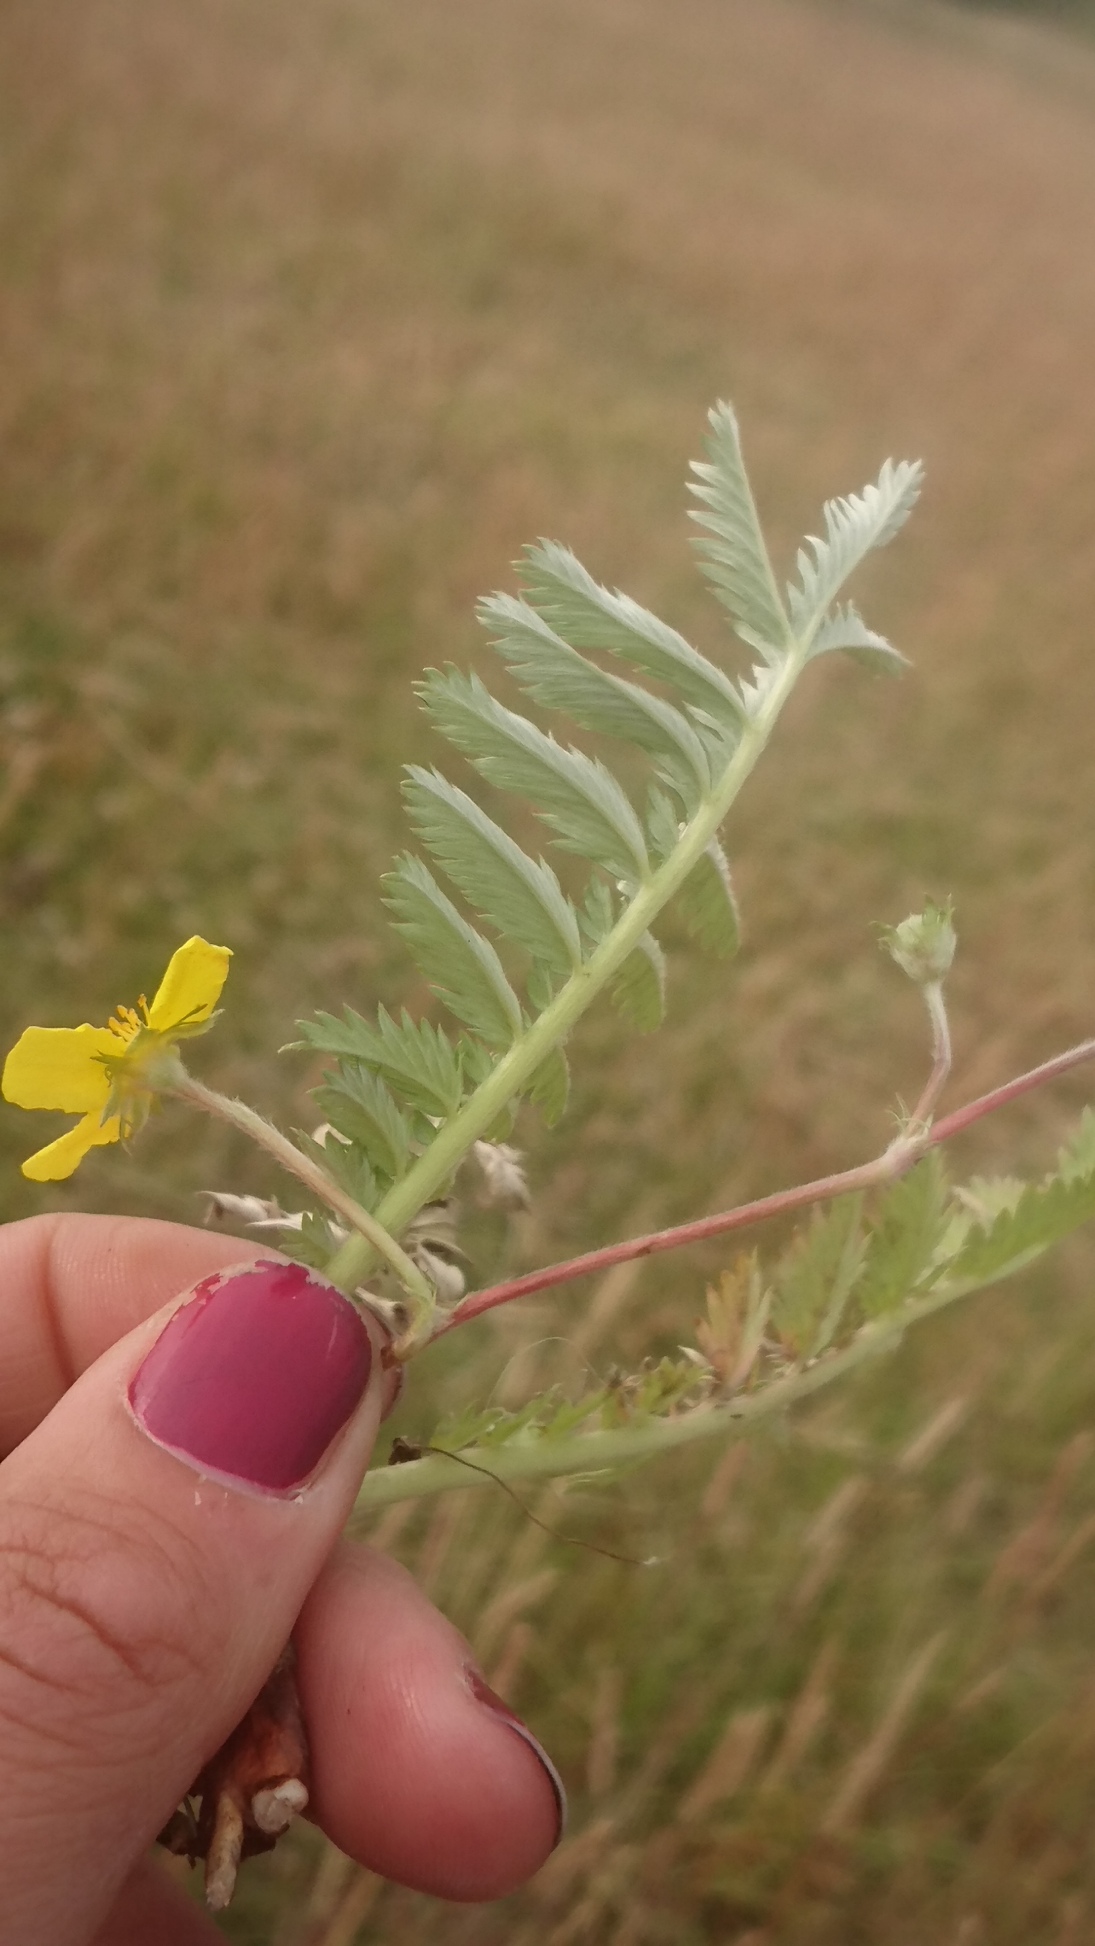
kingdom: Plantae
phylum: Tracheophyta
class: Magnoliopsida
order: Rosales
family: Rosaceae
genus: Argentina
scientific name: Argentina anserina
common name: Gåsepotentil
